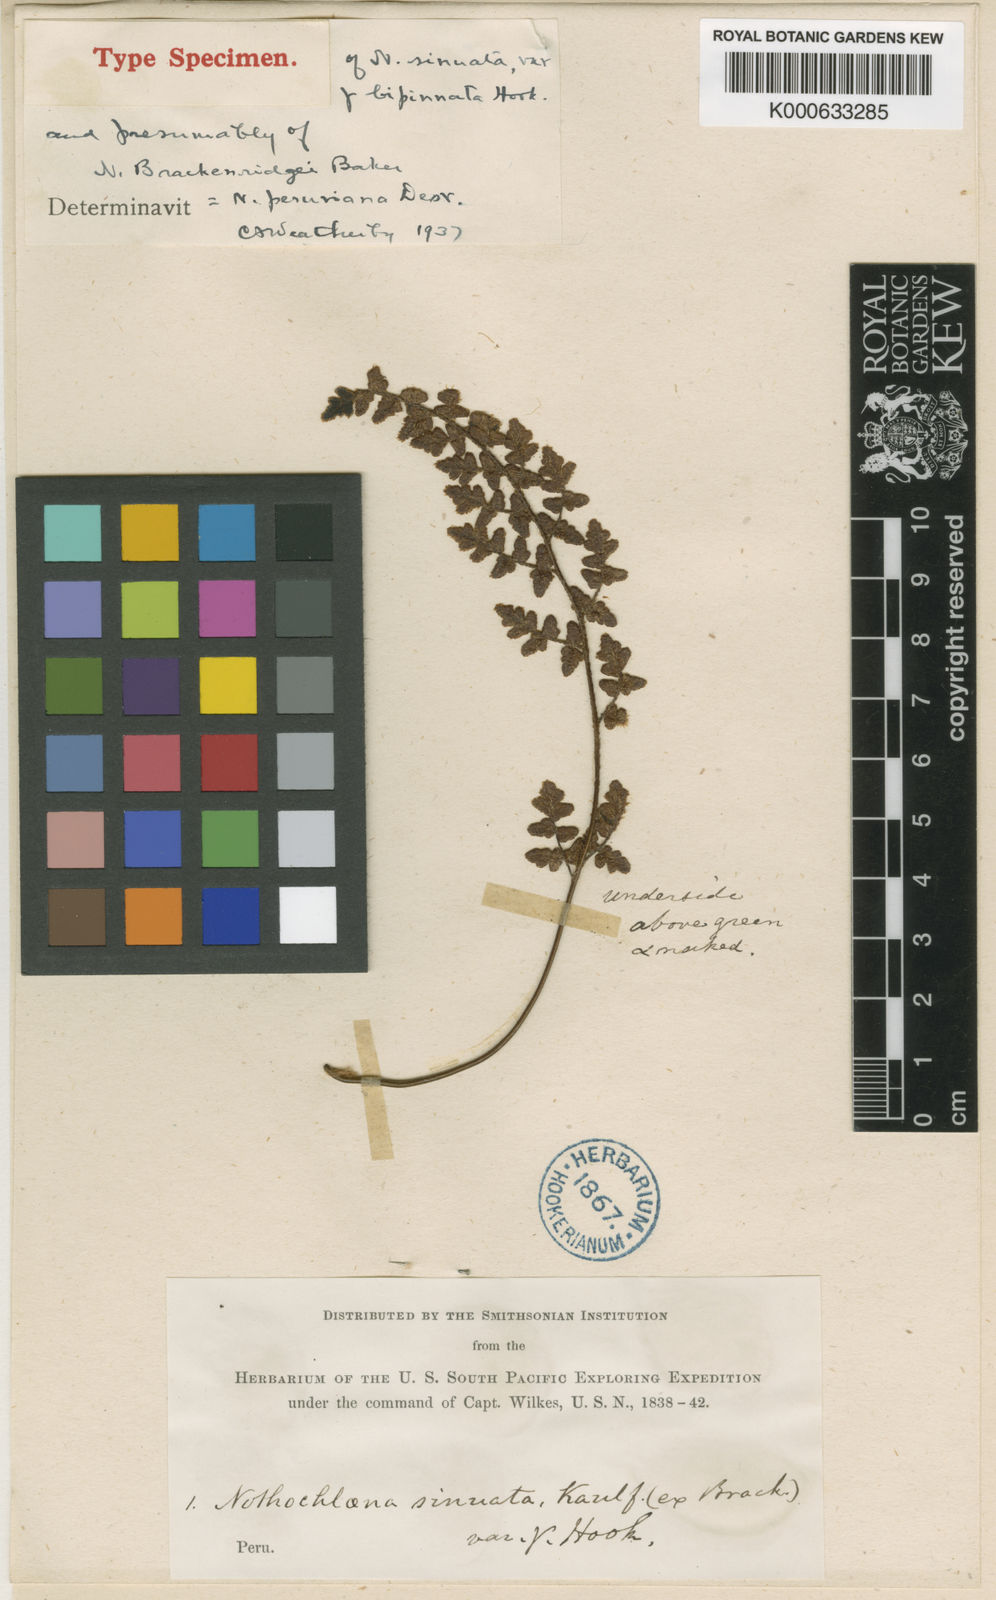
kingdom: Plantae
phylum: Tracheophyta
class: Polypodiopsida
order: Polypodiales
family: Pteridaceae
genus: Cheilanthes
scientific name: Cheilanthes peruviana
